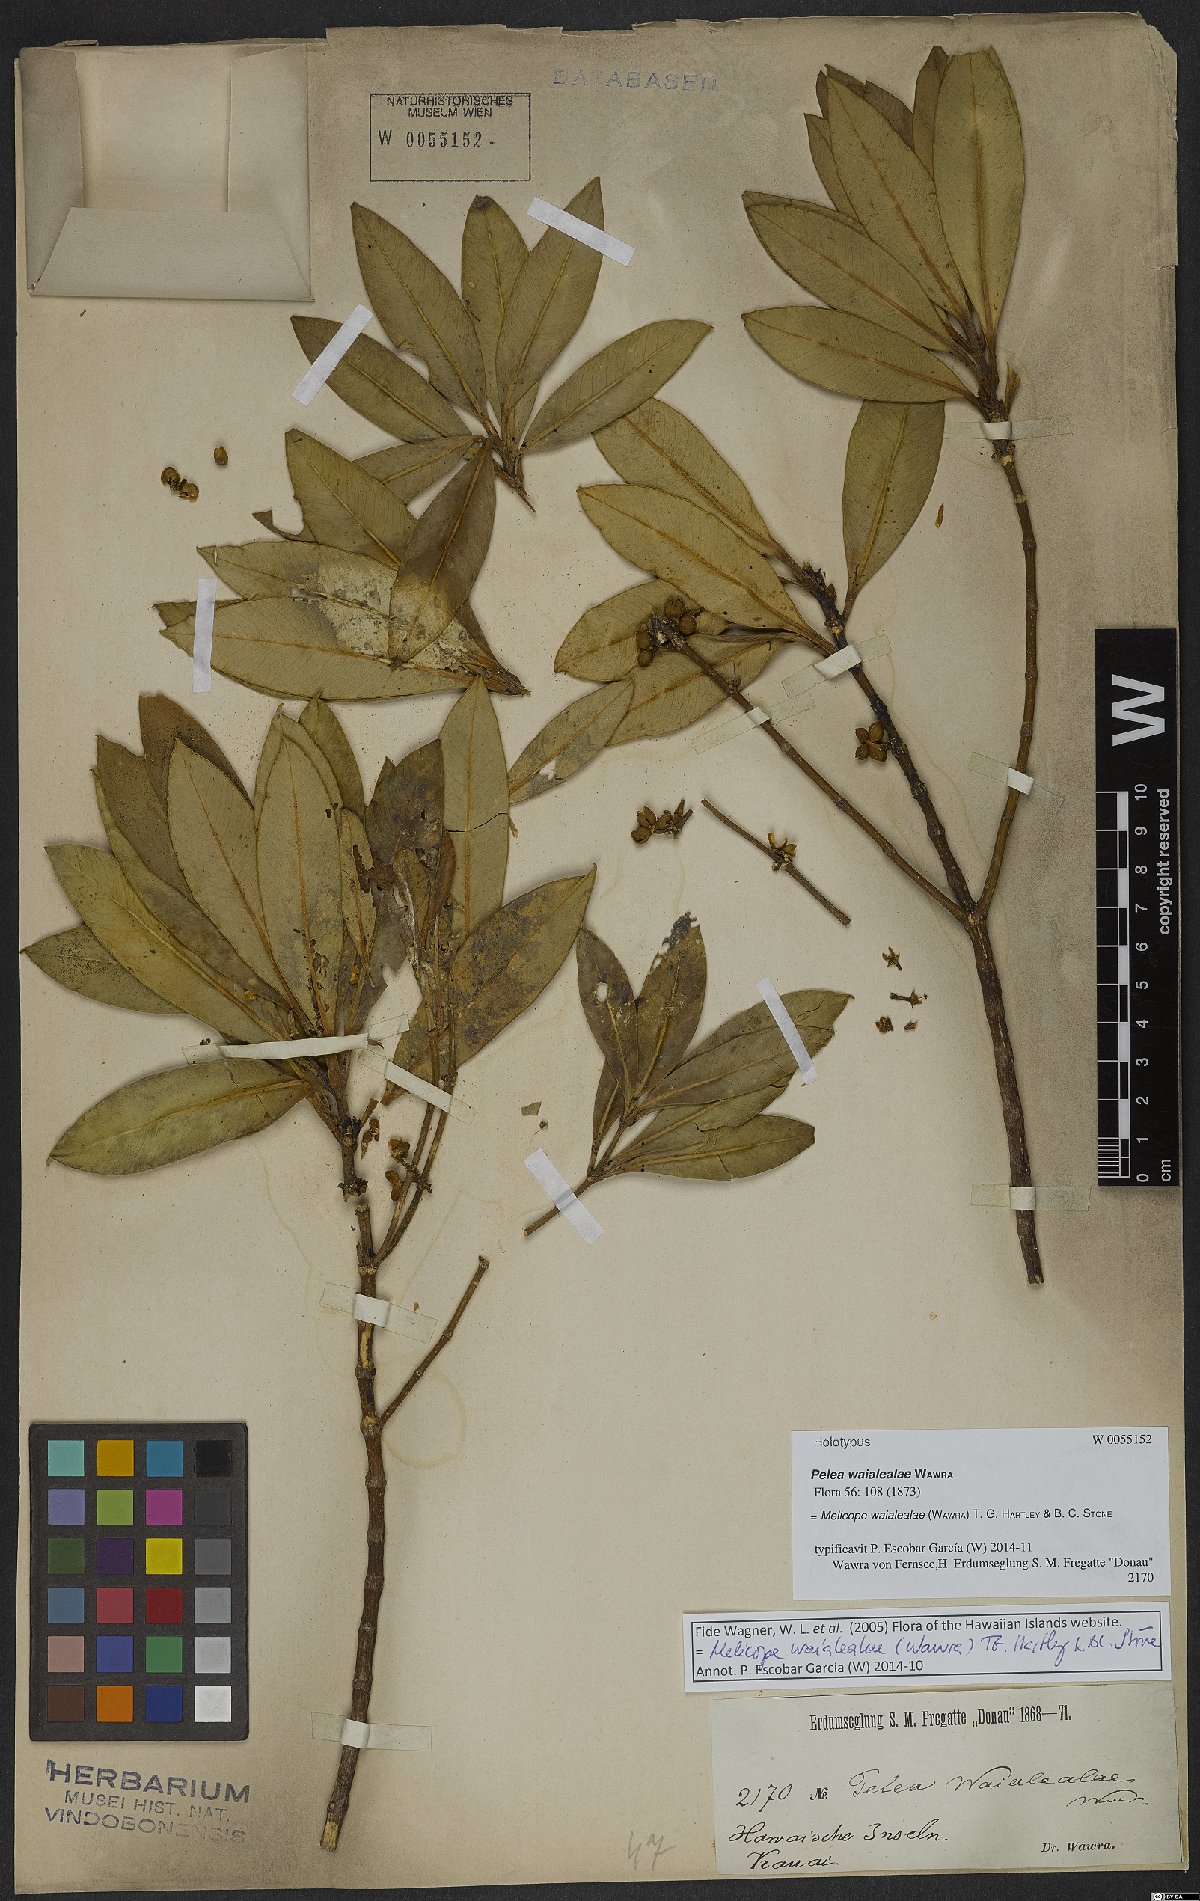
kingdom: Plantae
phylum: Tracheophyta
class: Magnoliopsida
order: Sapindales
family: Rutaceae
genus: Melicope
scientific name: Melicope waialealae
